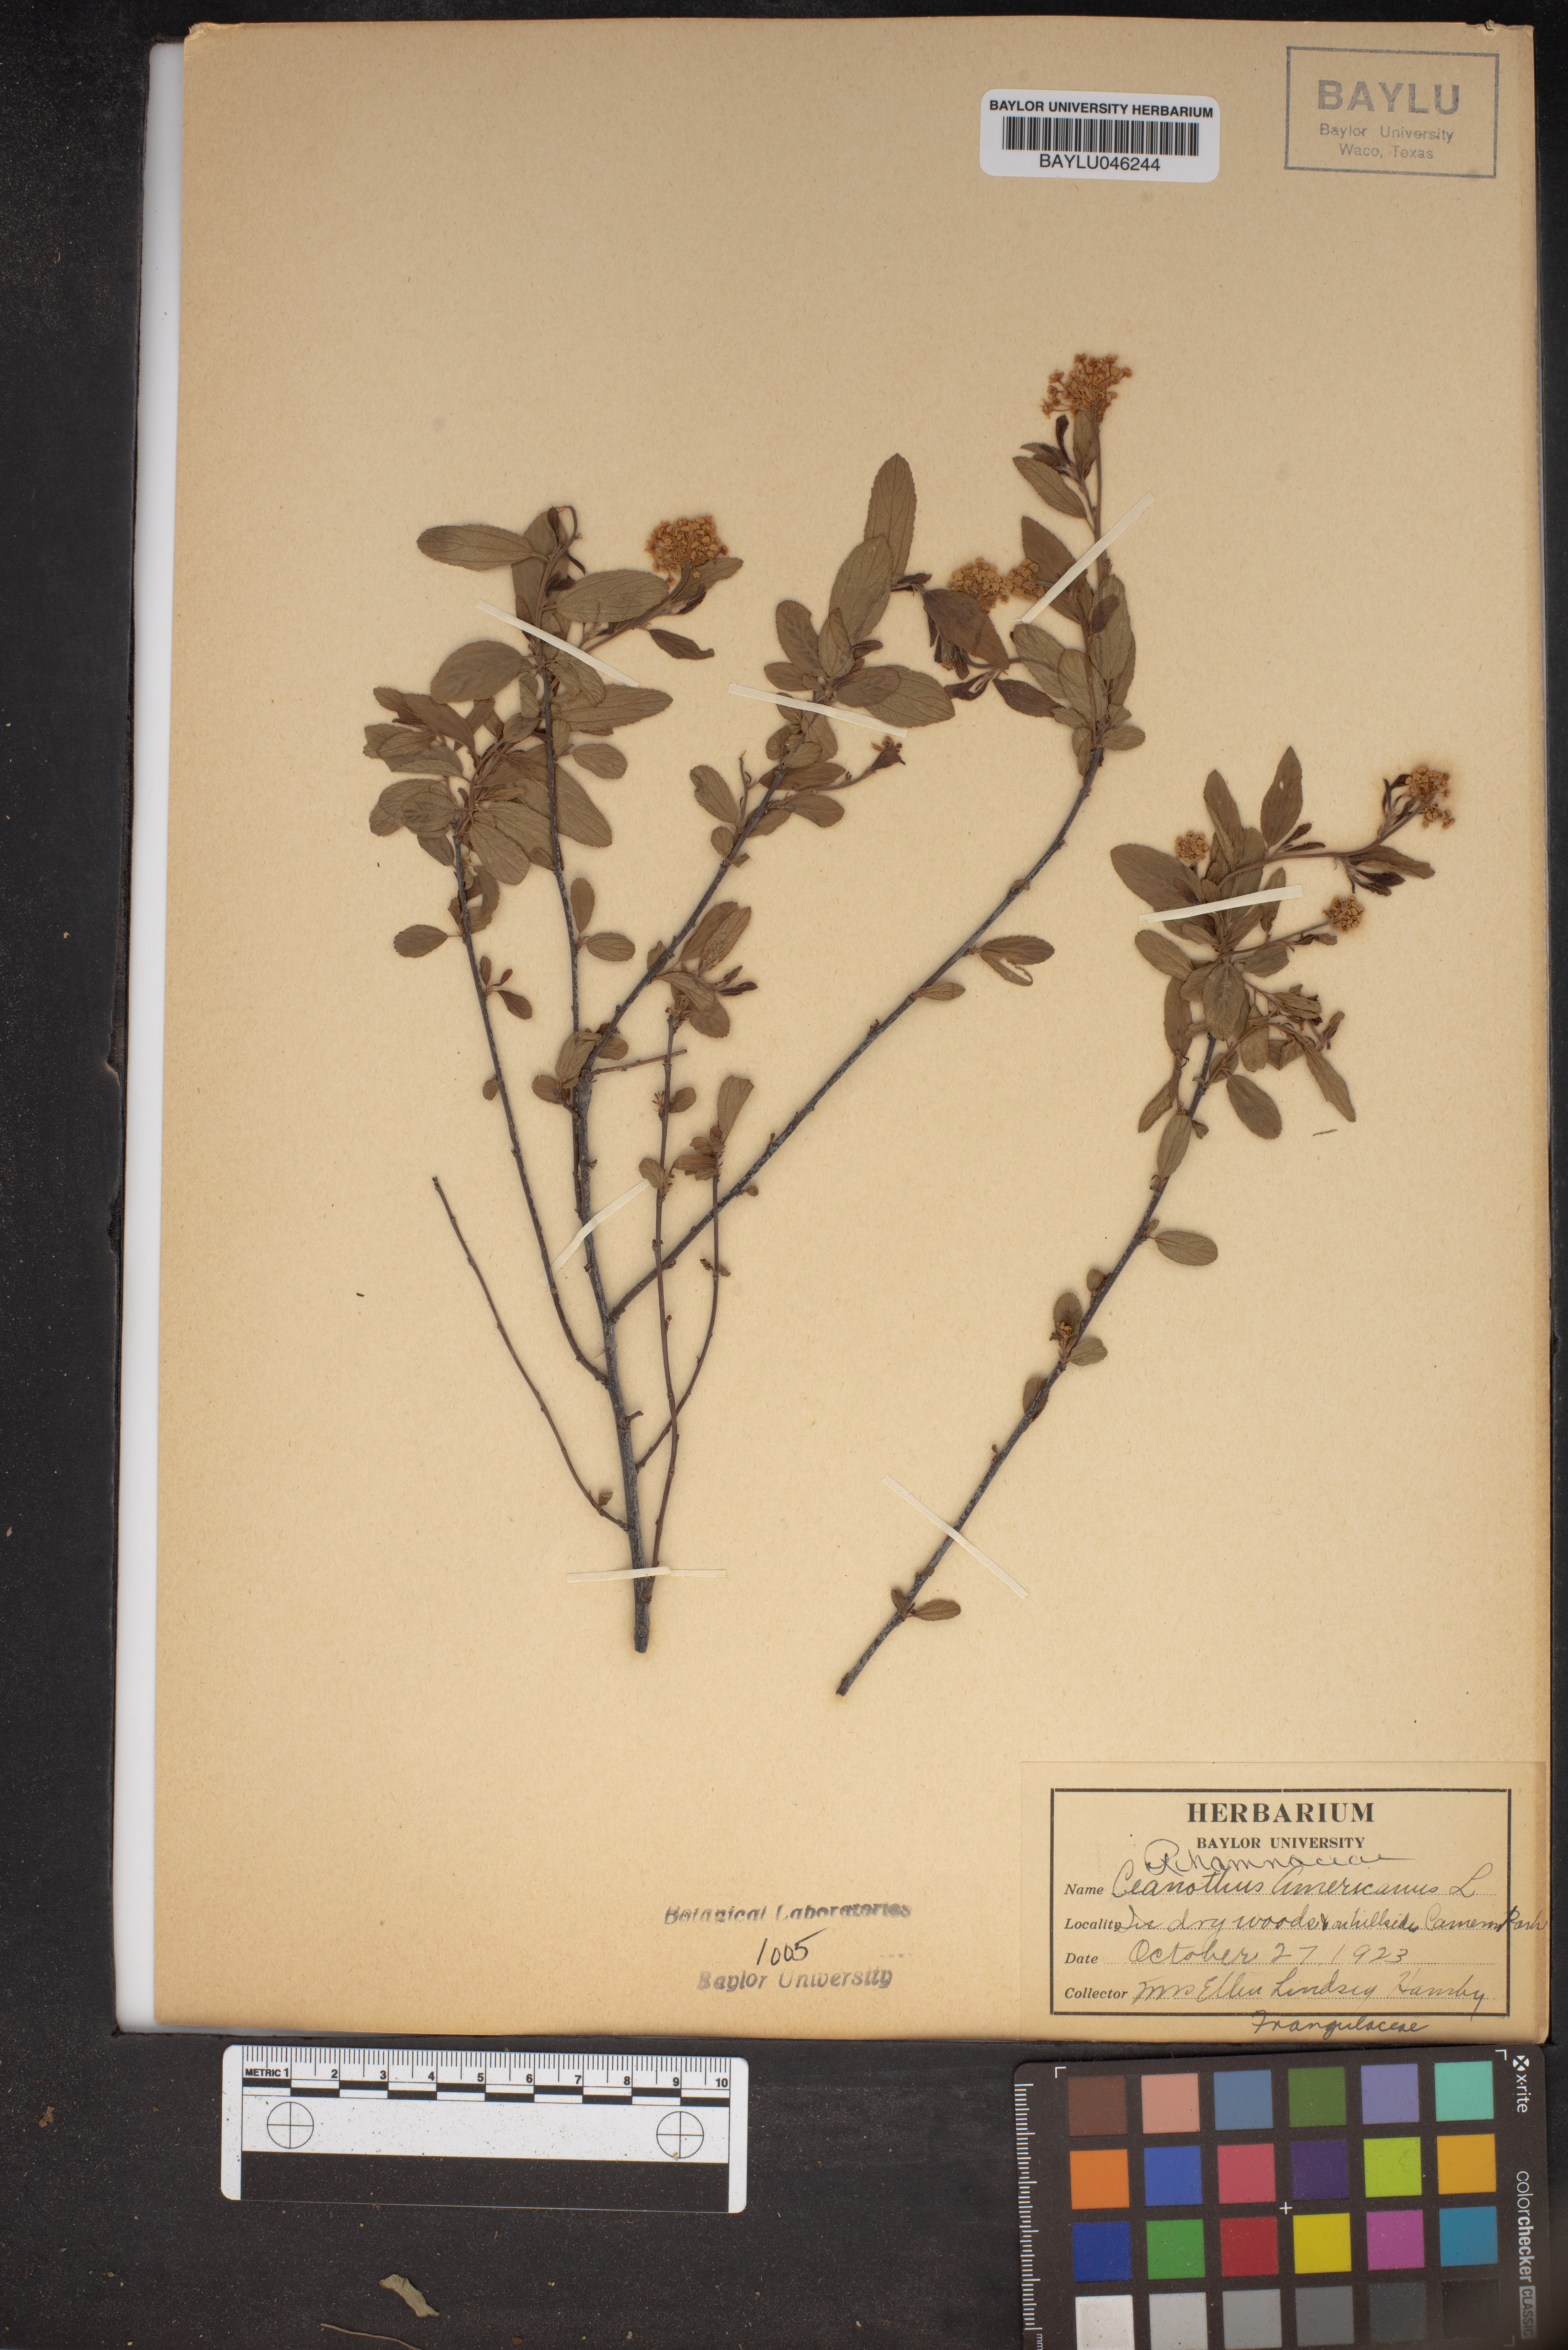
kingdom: Plantae
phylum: Tracheophyta
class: Magnoliopsida
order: Rosales
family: Rhamnaceae
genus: Ceanothus
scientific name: Ceanothus americanus
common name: Redroot
